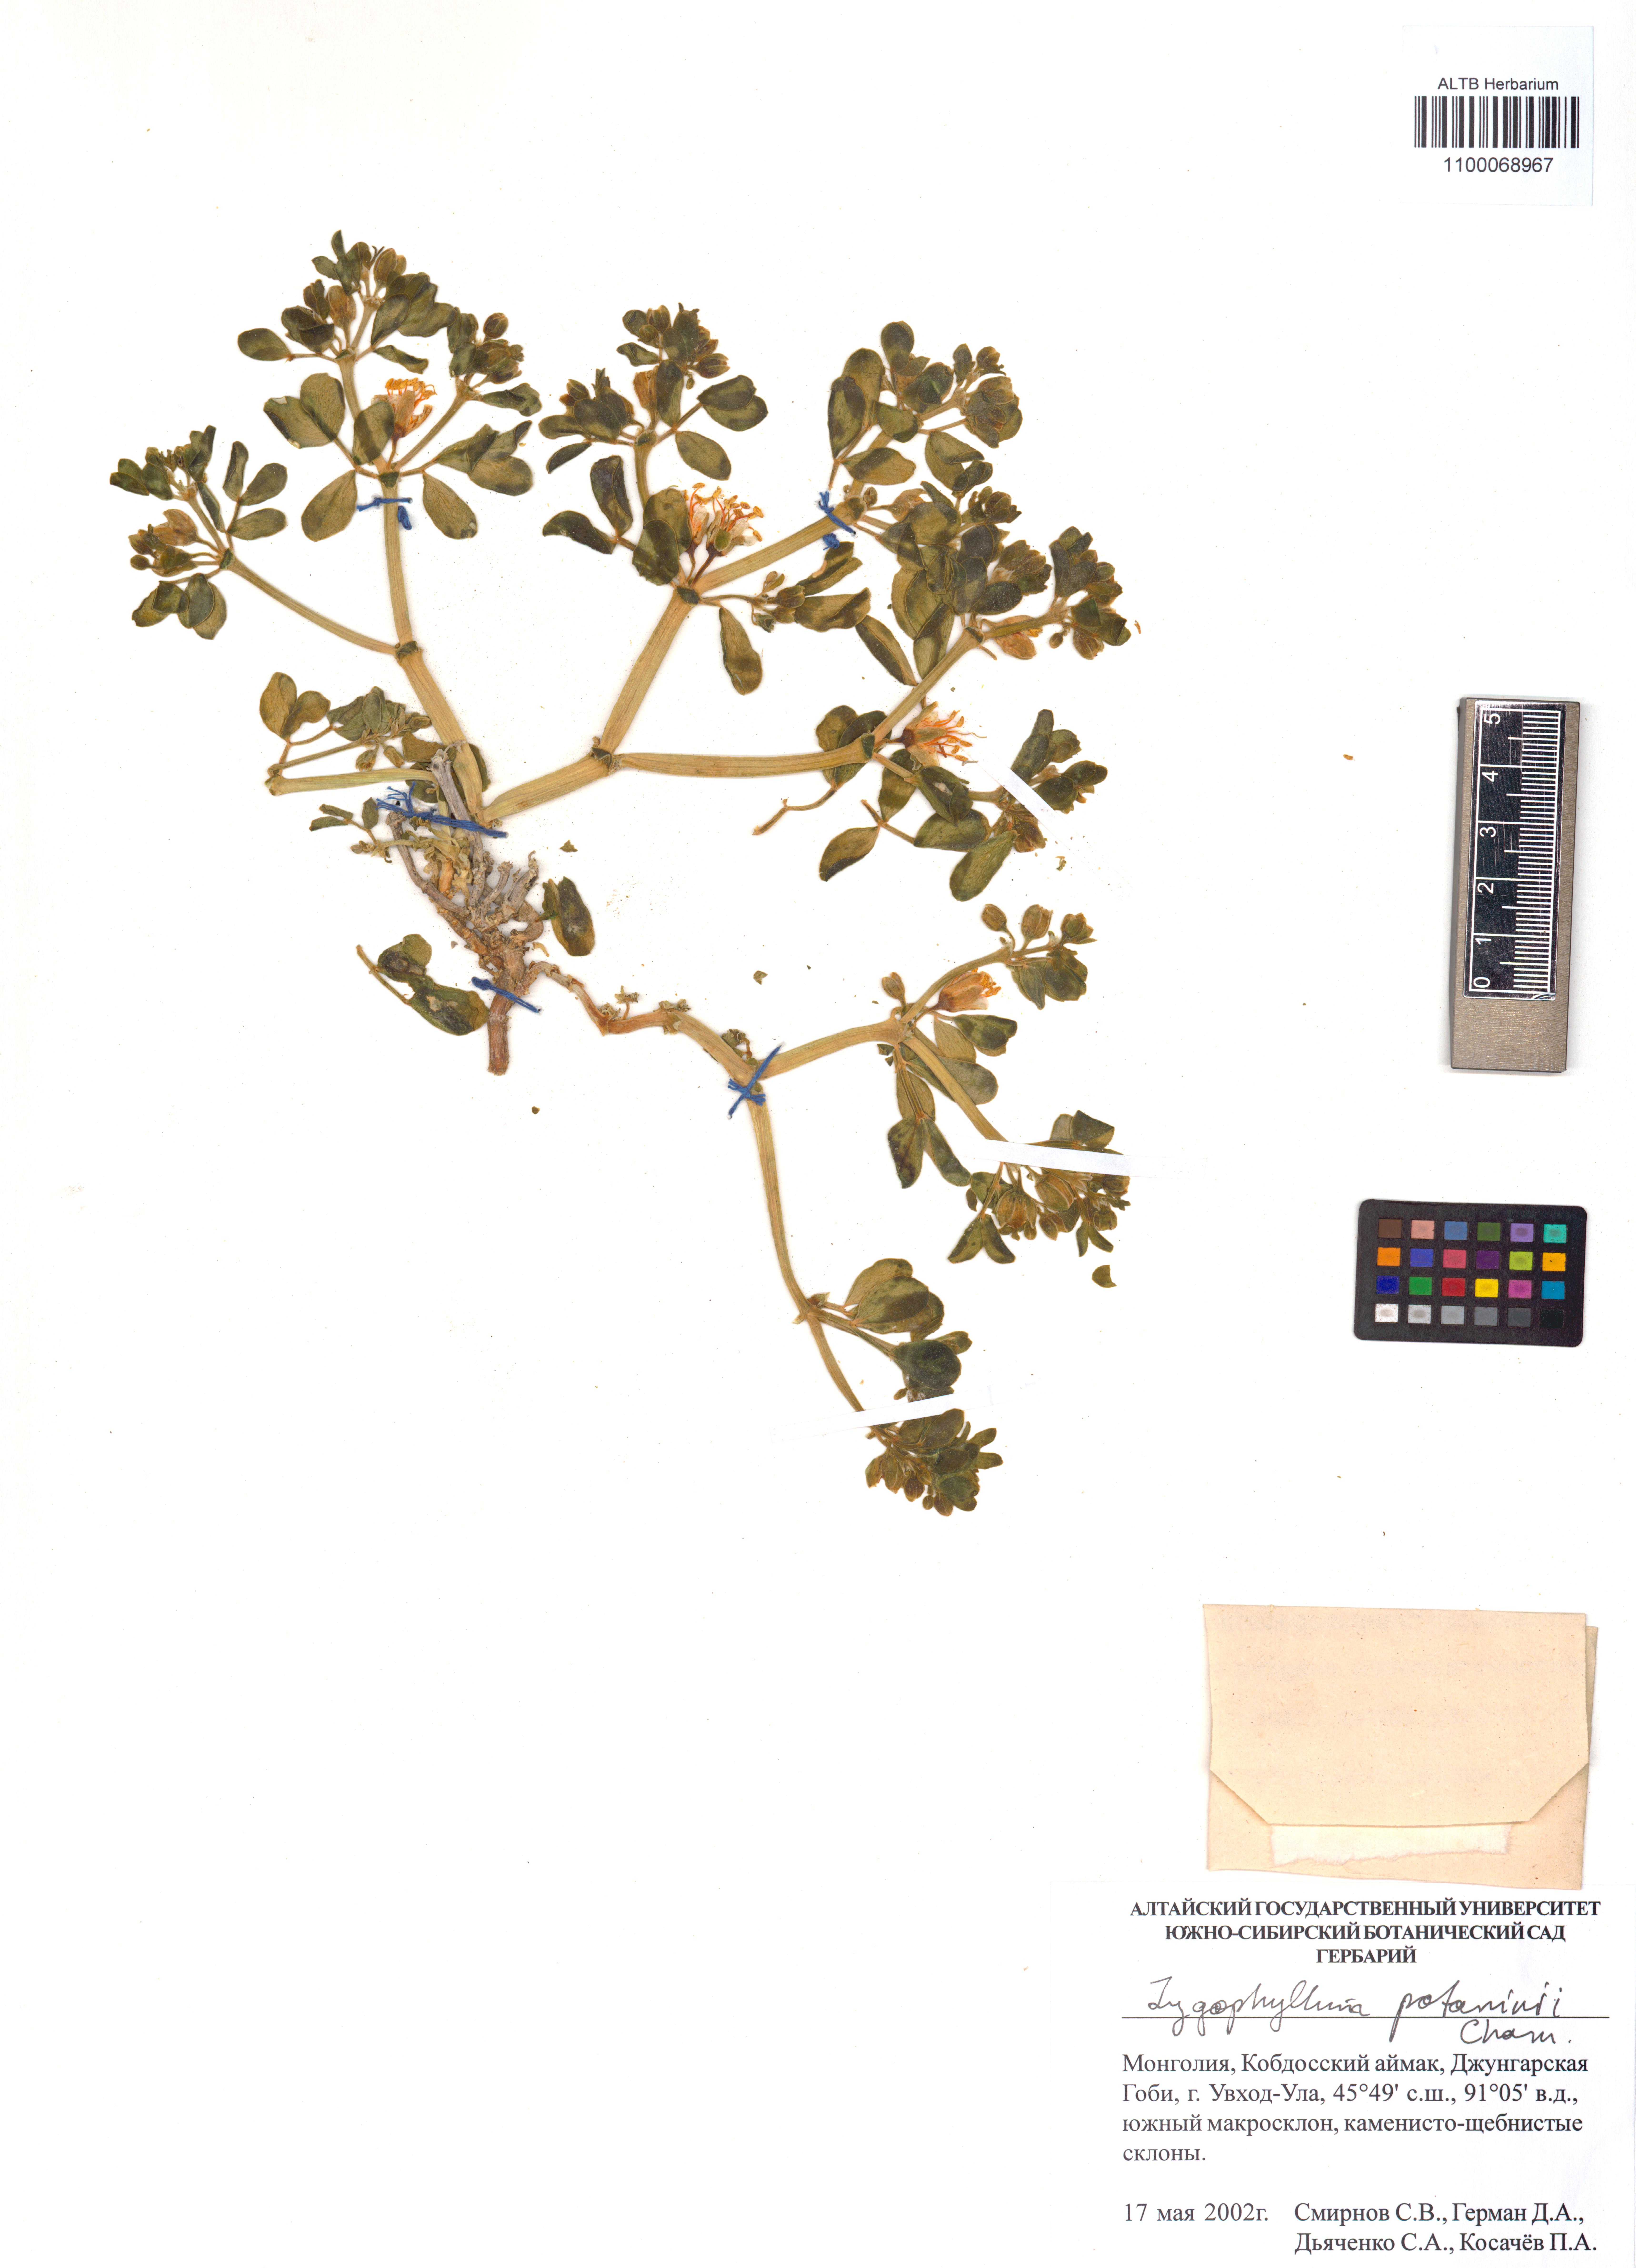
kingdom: Plantae
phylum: Tracheophyta
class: Magnoliopsida
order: Zygophyllales
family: Zygophyllaceae
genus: Zygophyllum
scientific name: Zygophyllum potaninii
